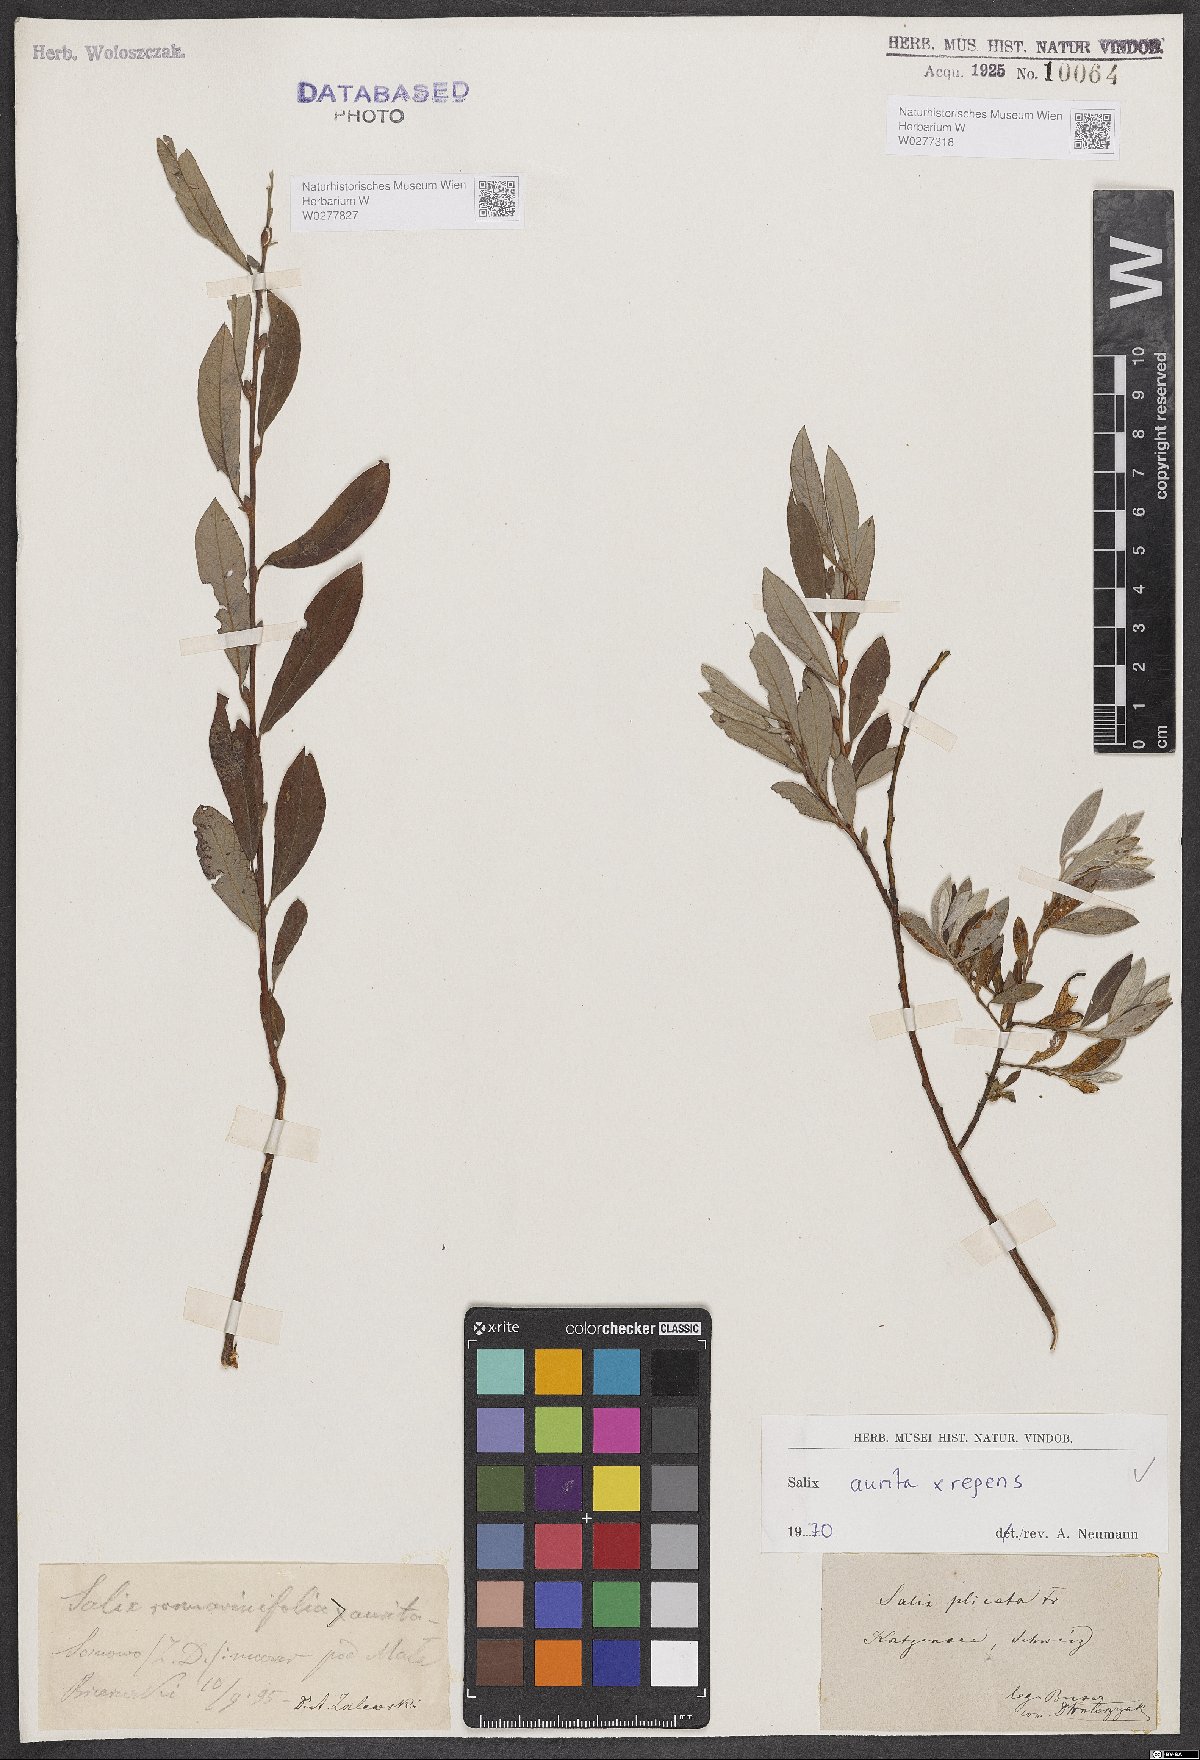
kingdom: Plantae
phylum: Tracheophyta
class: Magnoliopsida
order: Malpighiales
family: Salicaceae
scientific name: Salicaceae
